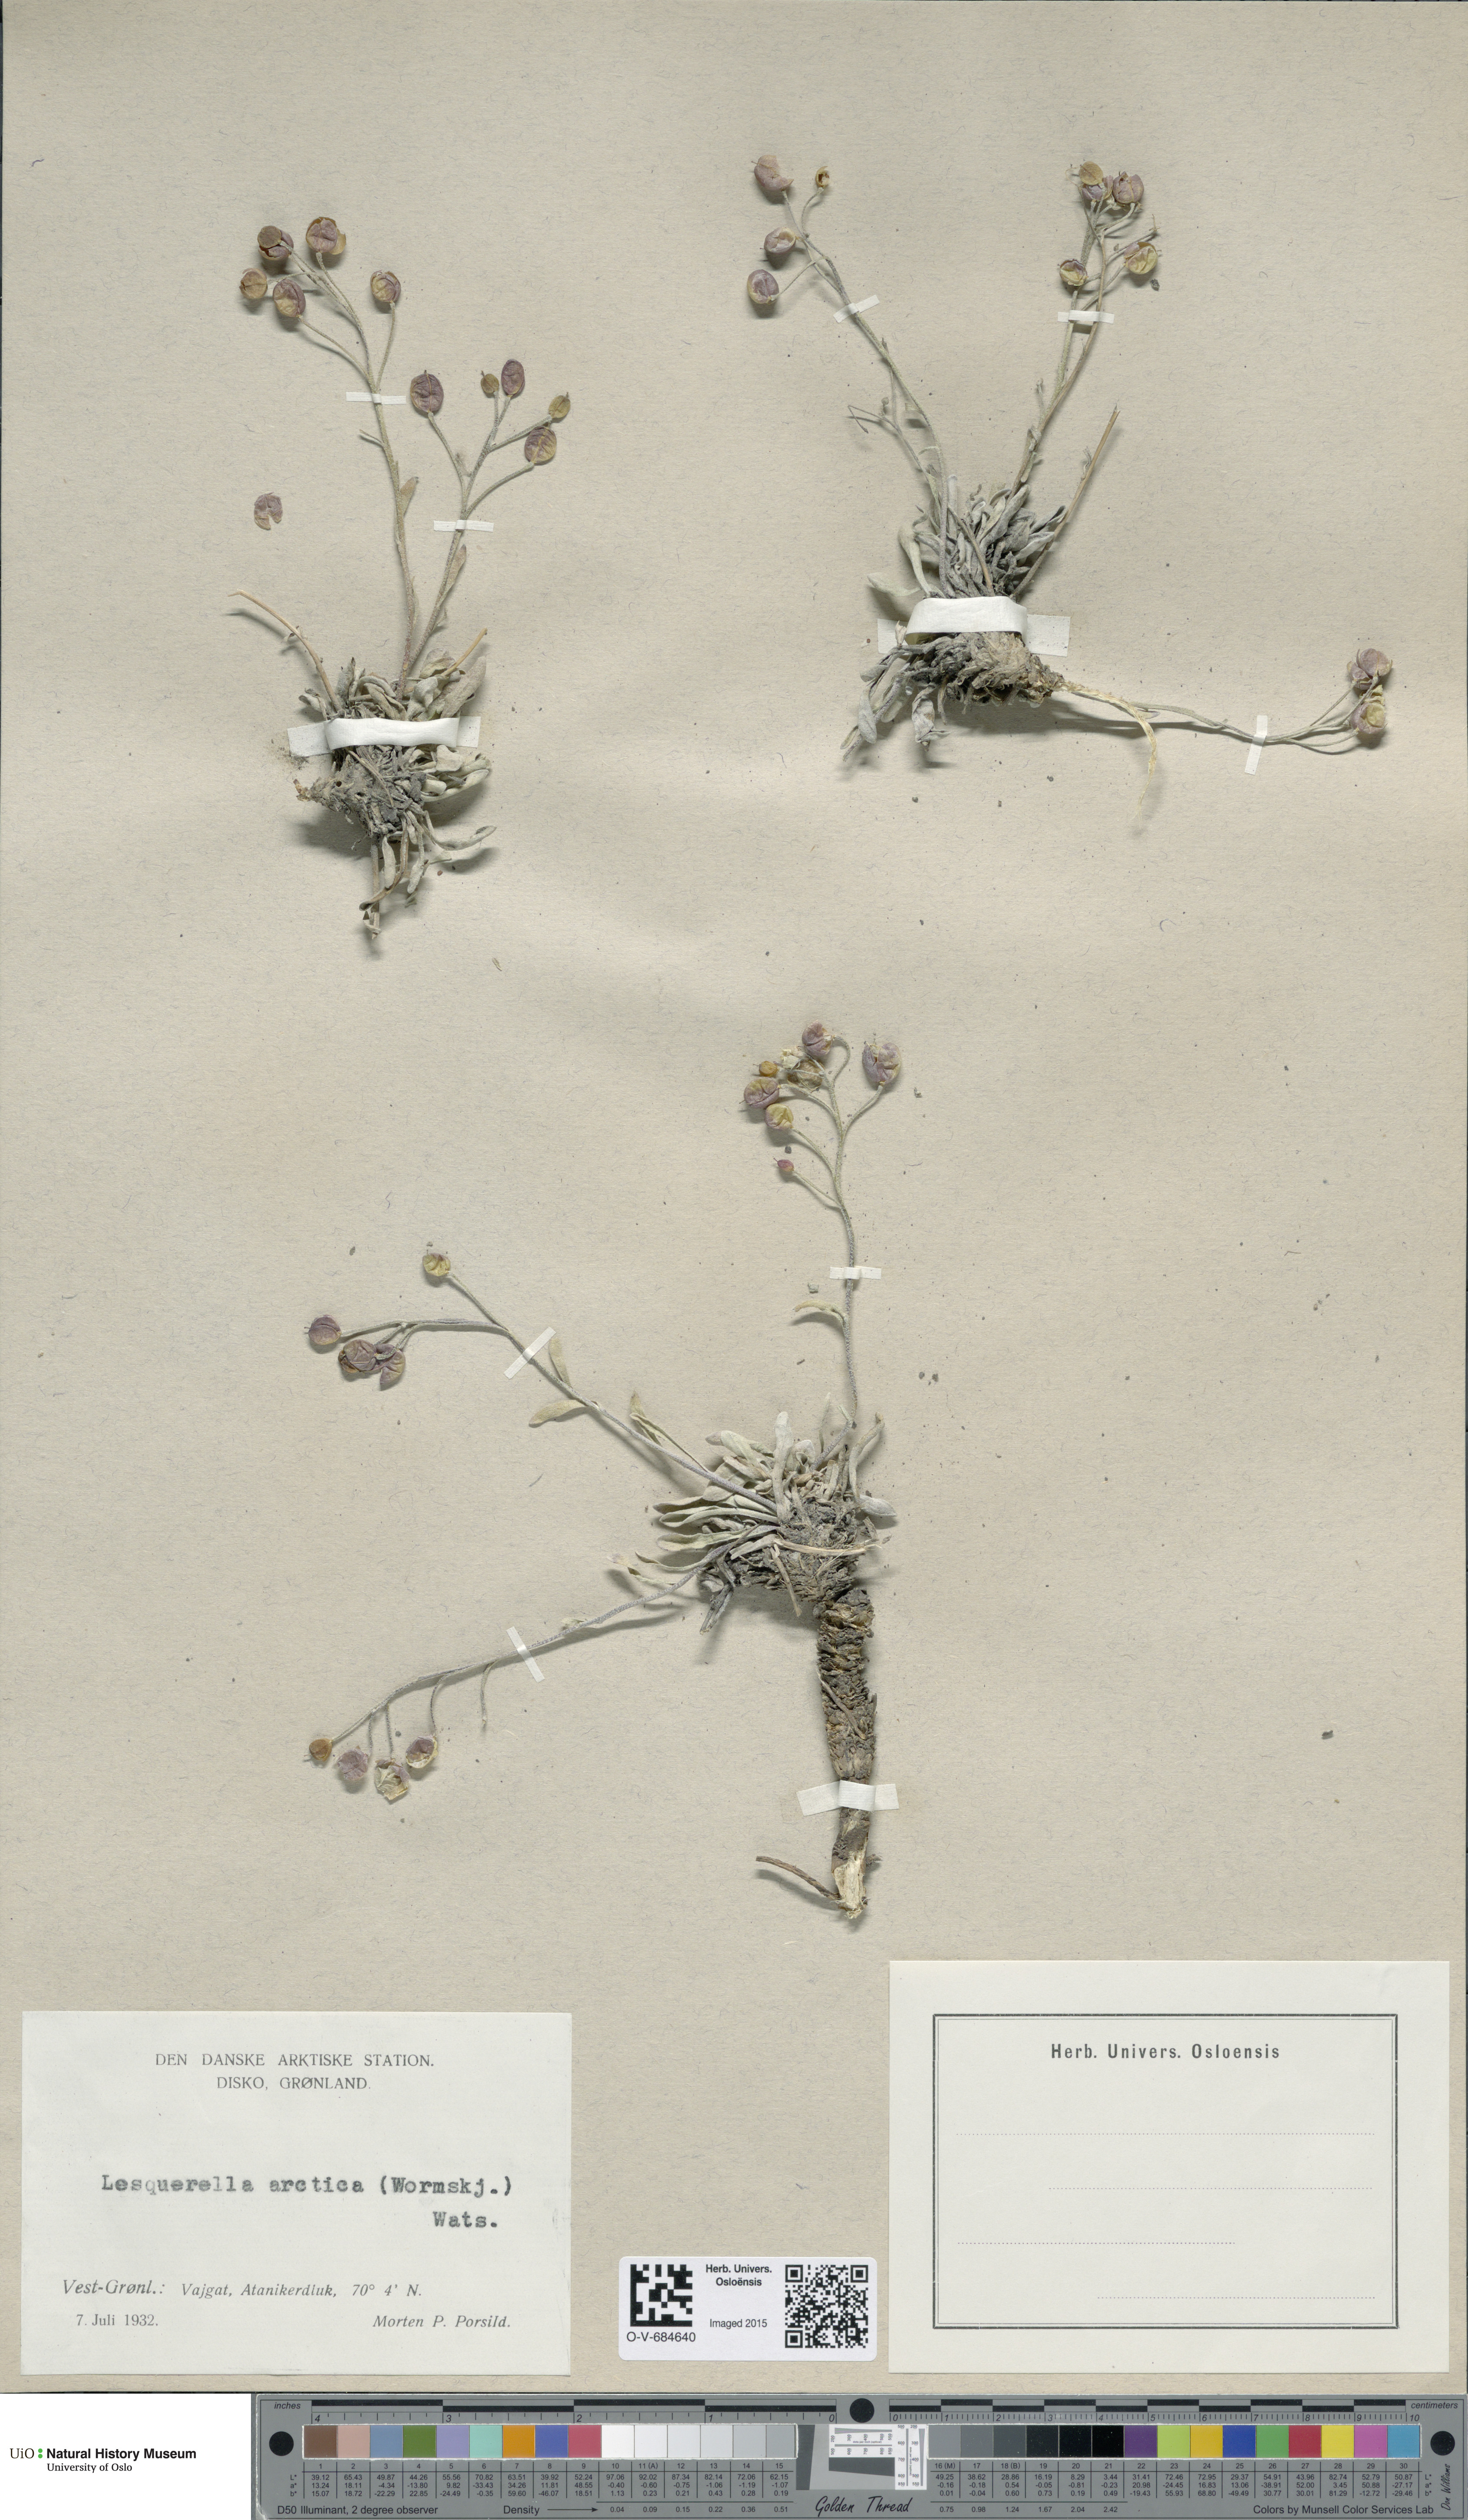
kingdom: Plantae
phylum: Tracheophyta
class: Magnoliopsida
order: Brassicales
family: Brassicaceae
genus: Physaria
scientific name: Physaria arctica
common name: Arctic bladderpod
